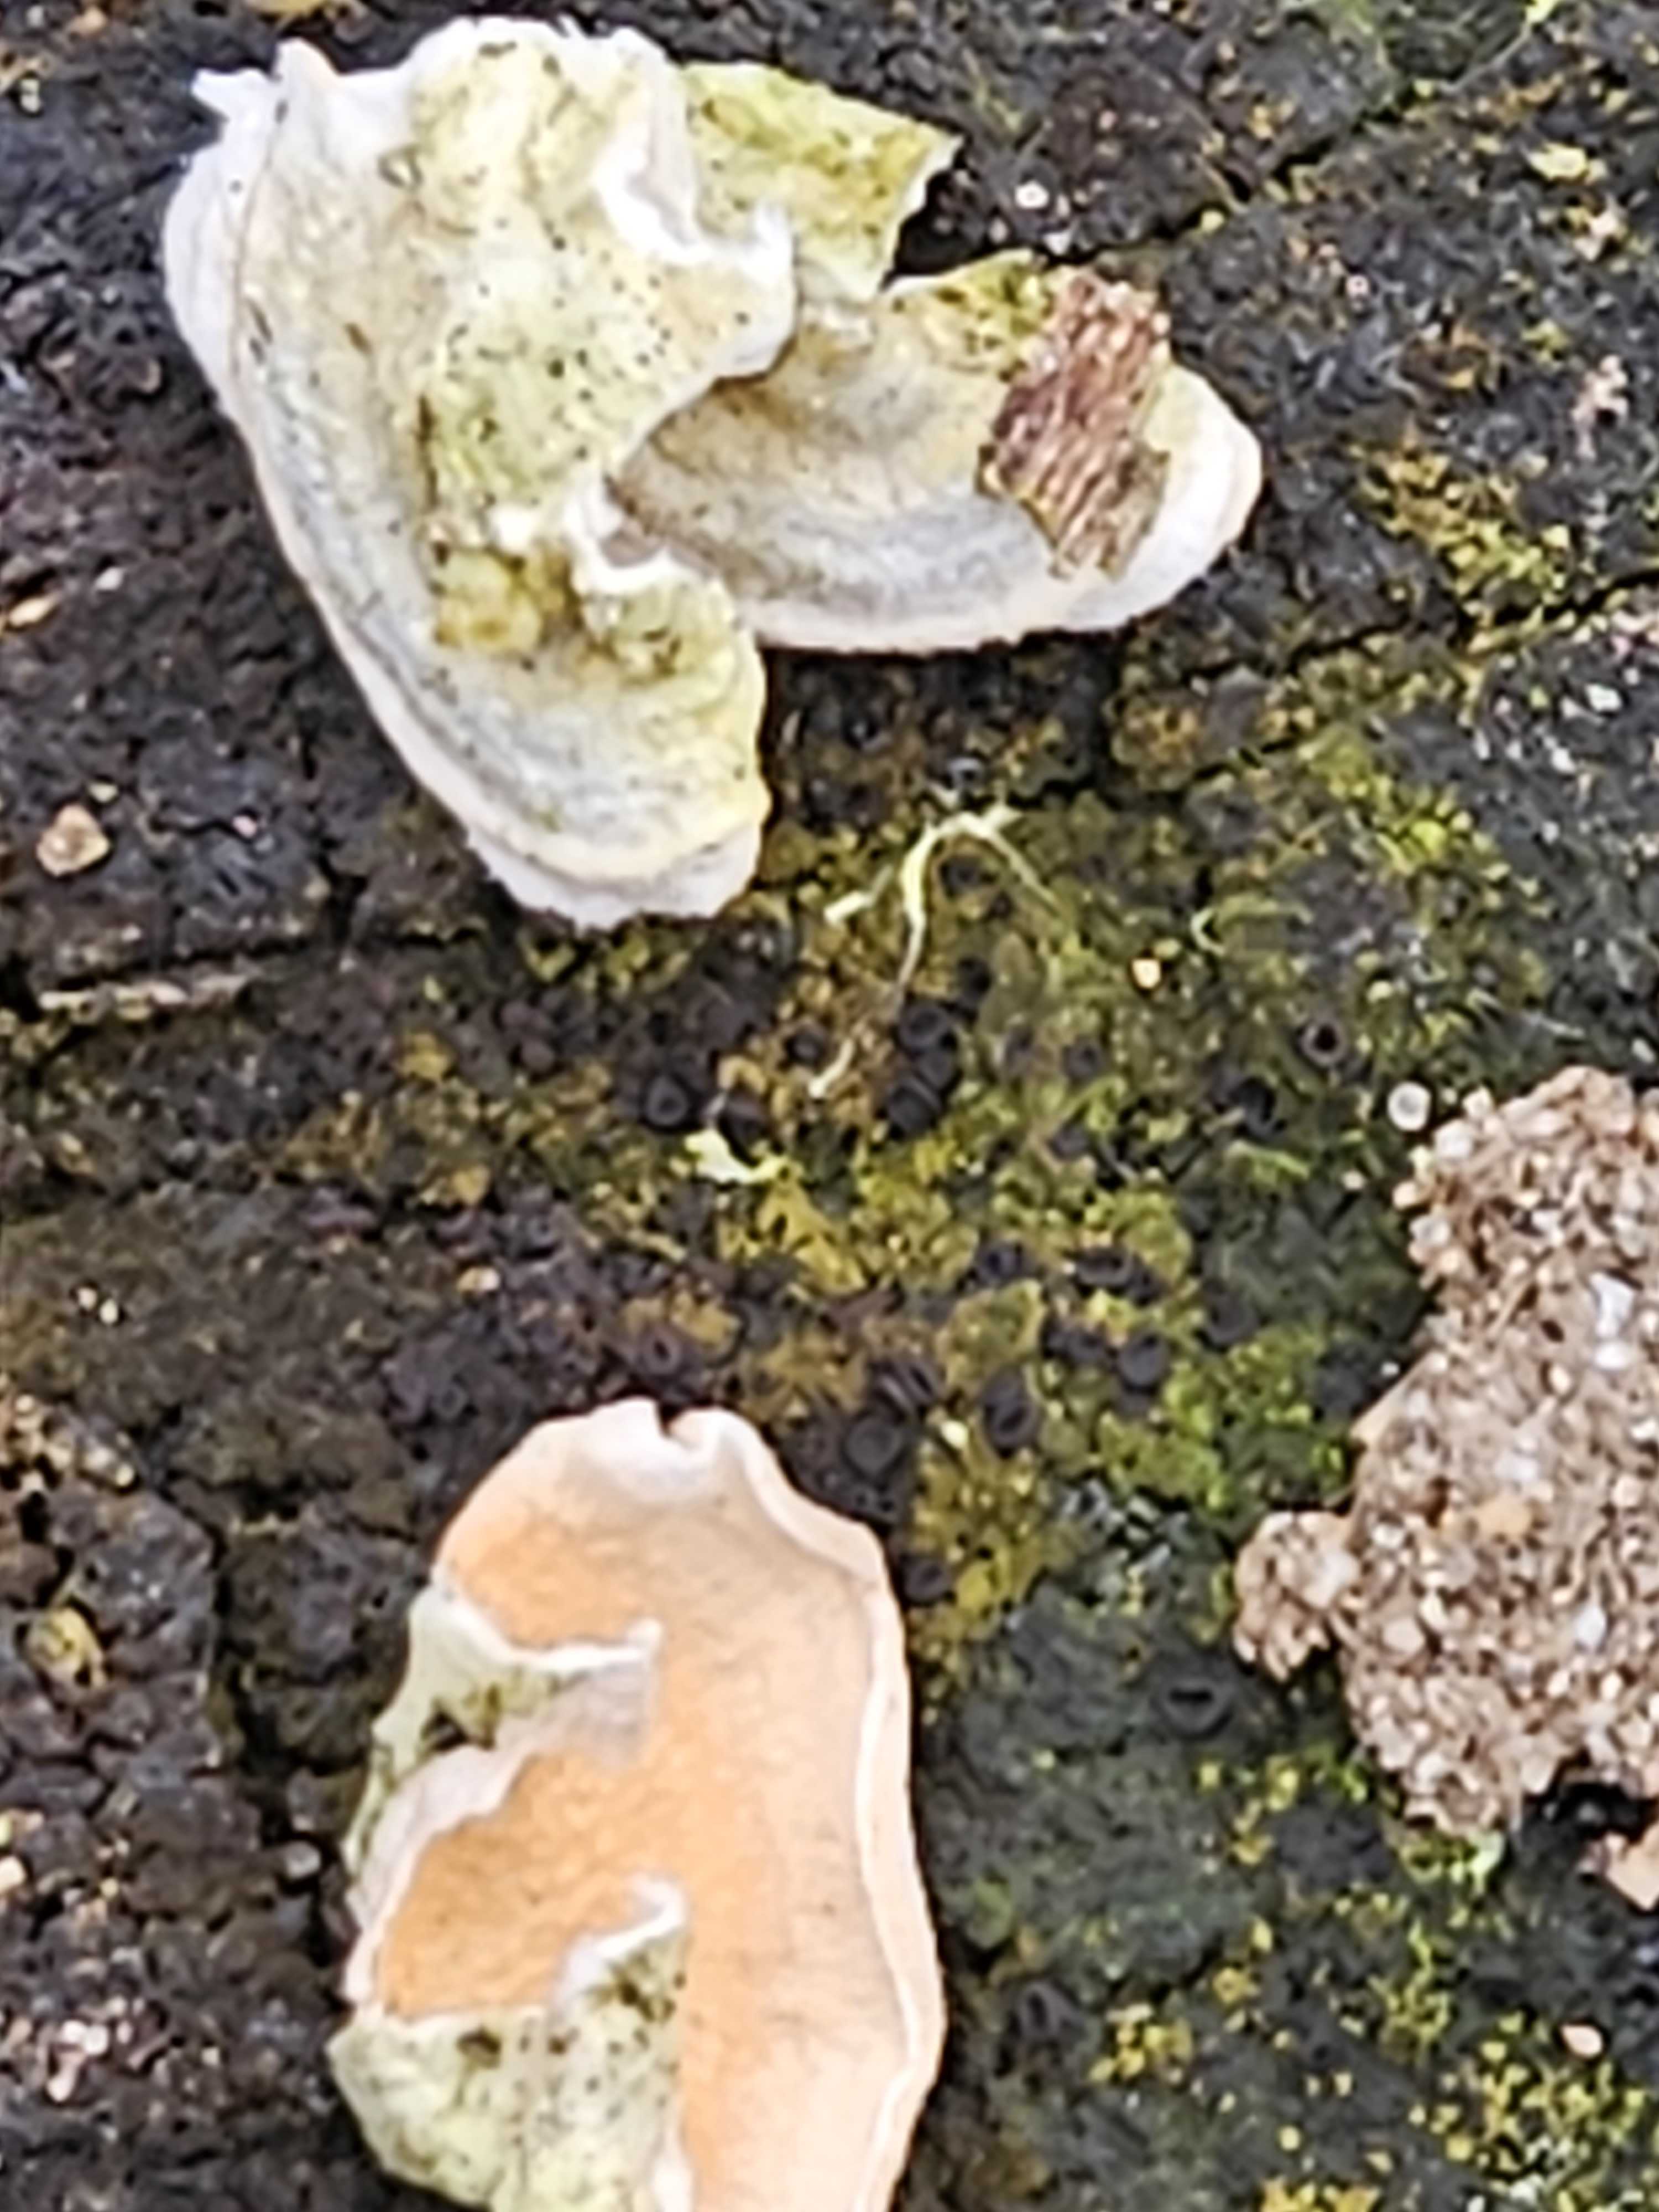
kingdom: Fungi
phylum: Basidiomycota
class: Agaricomycetes
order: Polyporales
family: Irpicaceae
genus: Byssomerulius
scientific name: Byssomerulius corium
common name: læder-åresvamp
